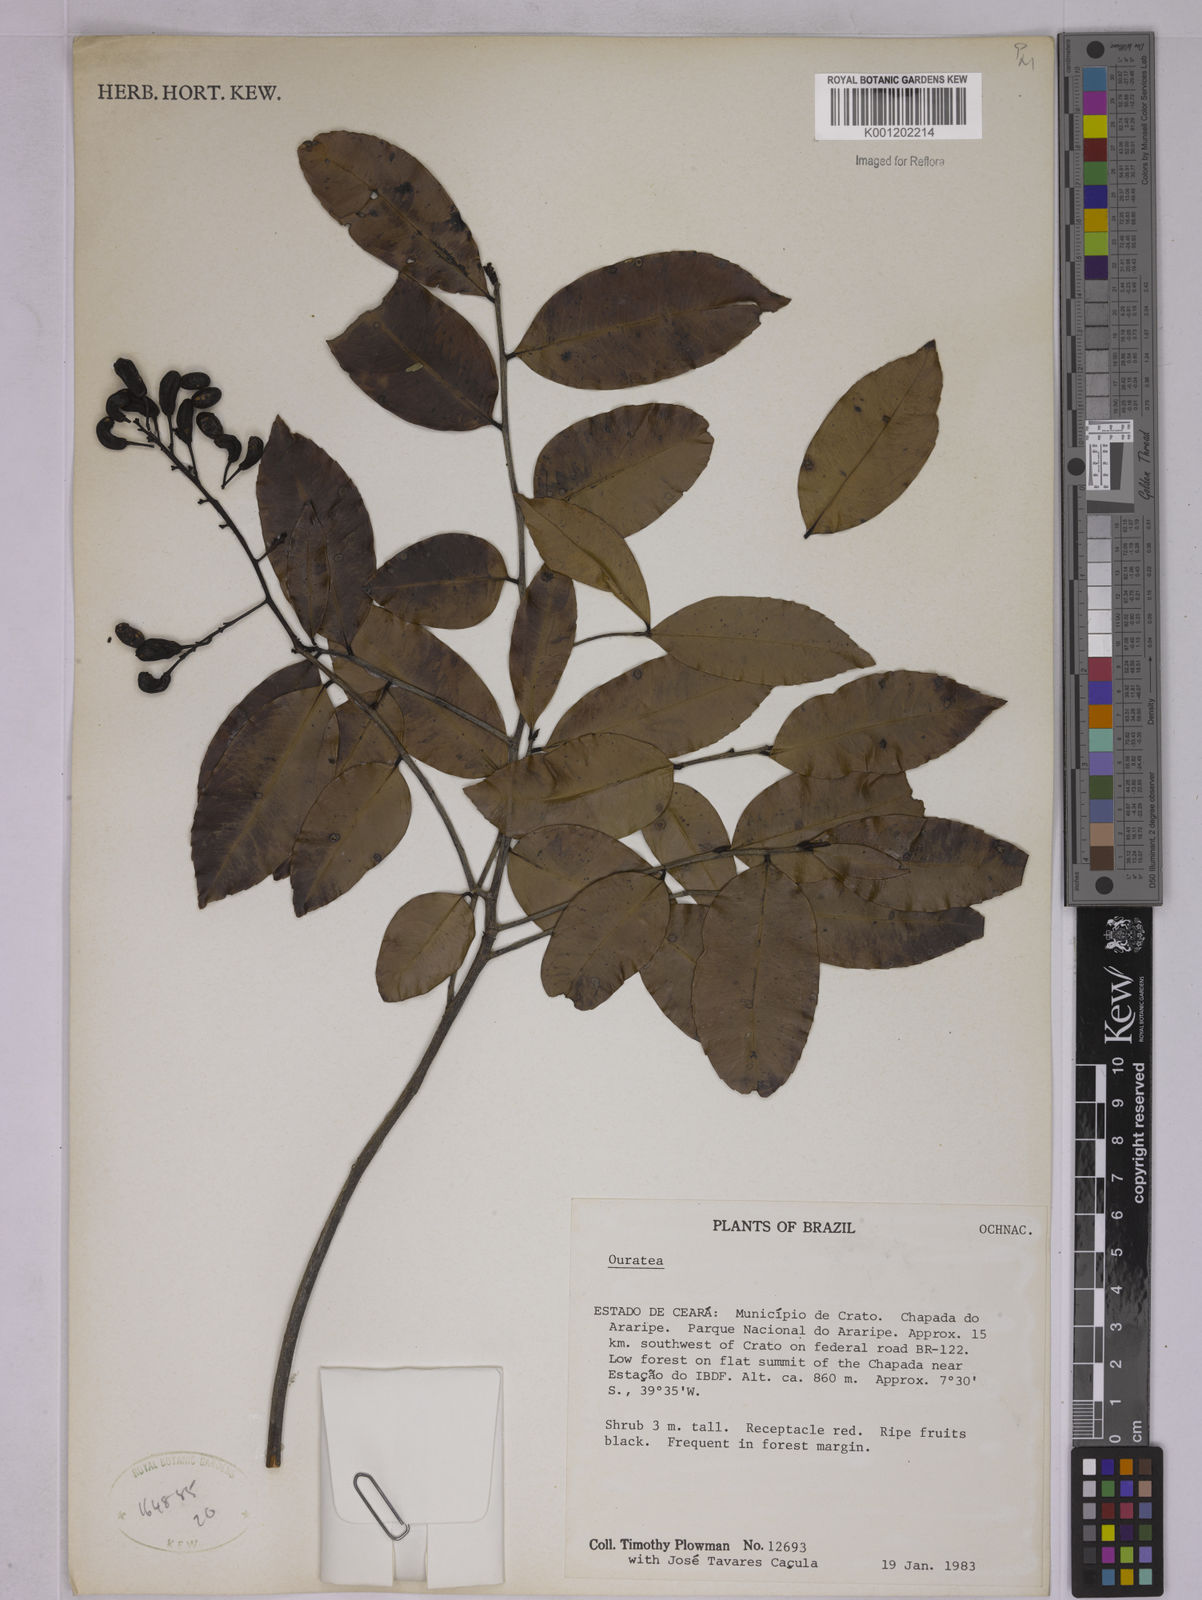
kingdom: Plantae
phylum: Tracheophyta
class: Magnoliopsida
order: Malpighiales
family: Ochnaceae
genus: Ouratea
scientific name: Ouratea
